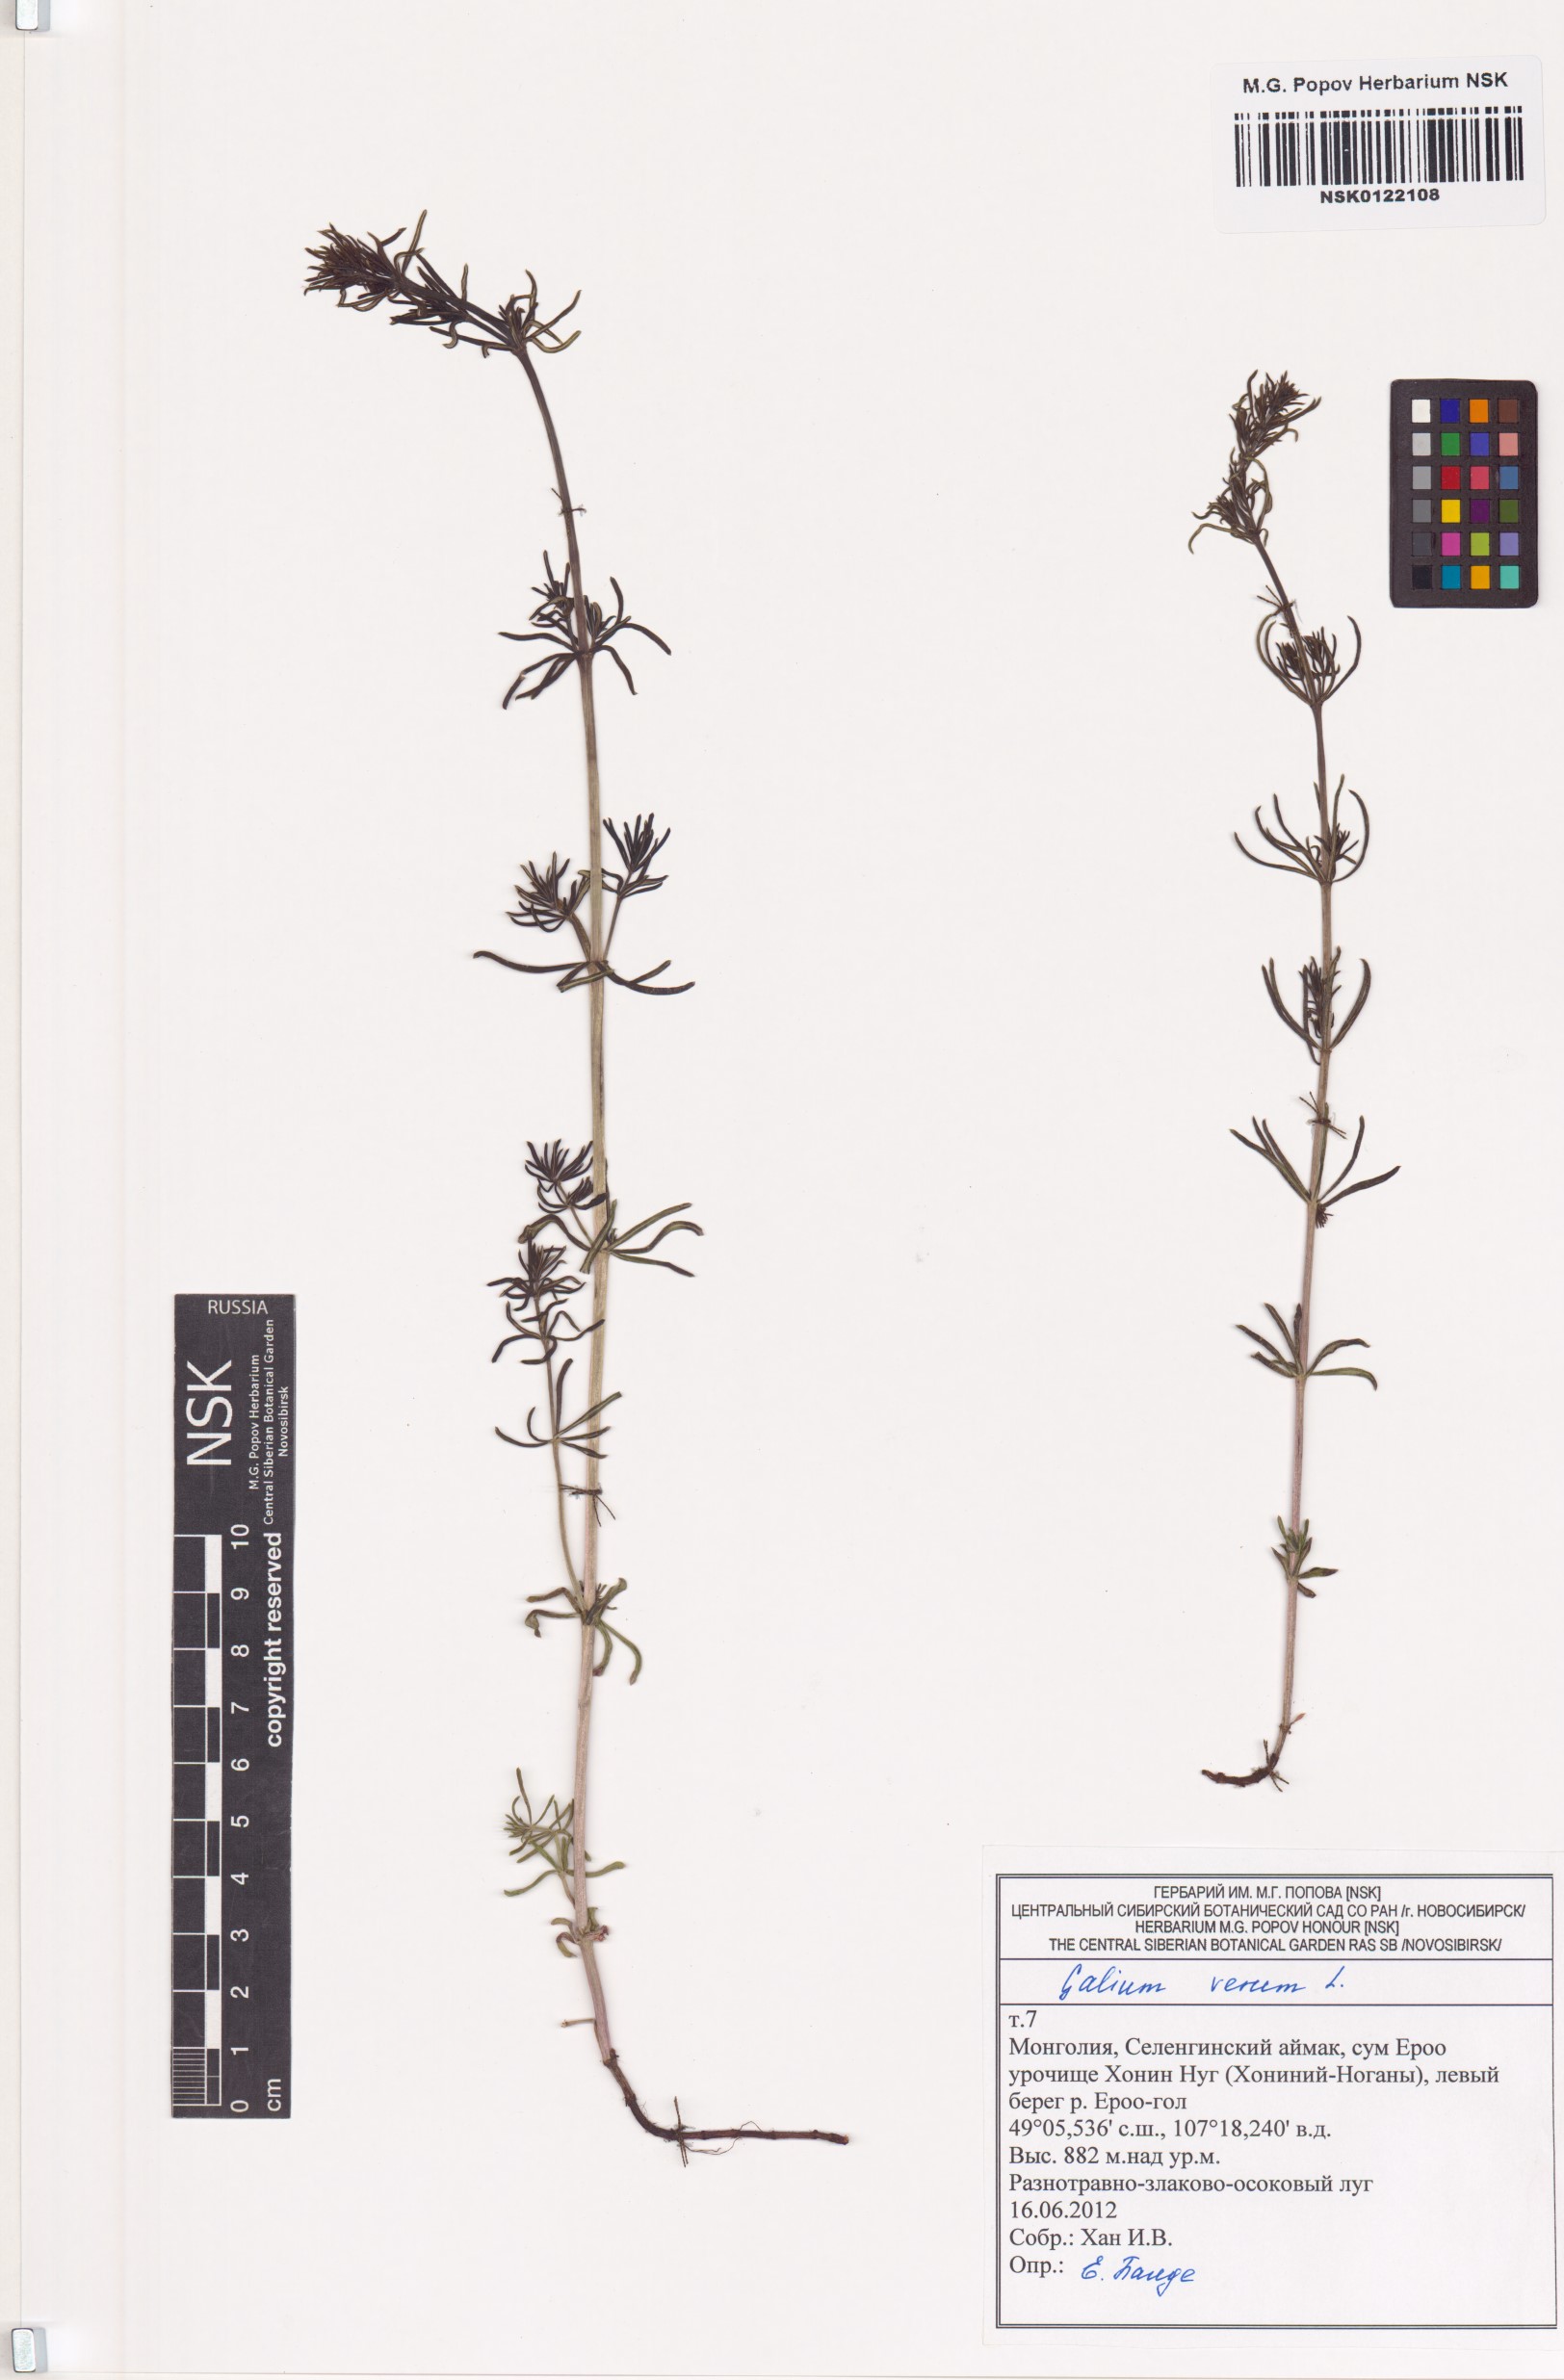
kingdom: Plantae
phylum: Tracheophyta
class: Magnoliopsida
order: Gentianales
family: Rubiaceae
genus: Galium
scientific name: Galium verum
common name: Lady's bedstraw
